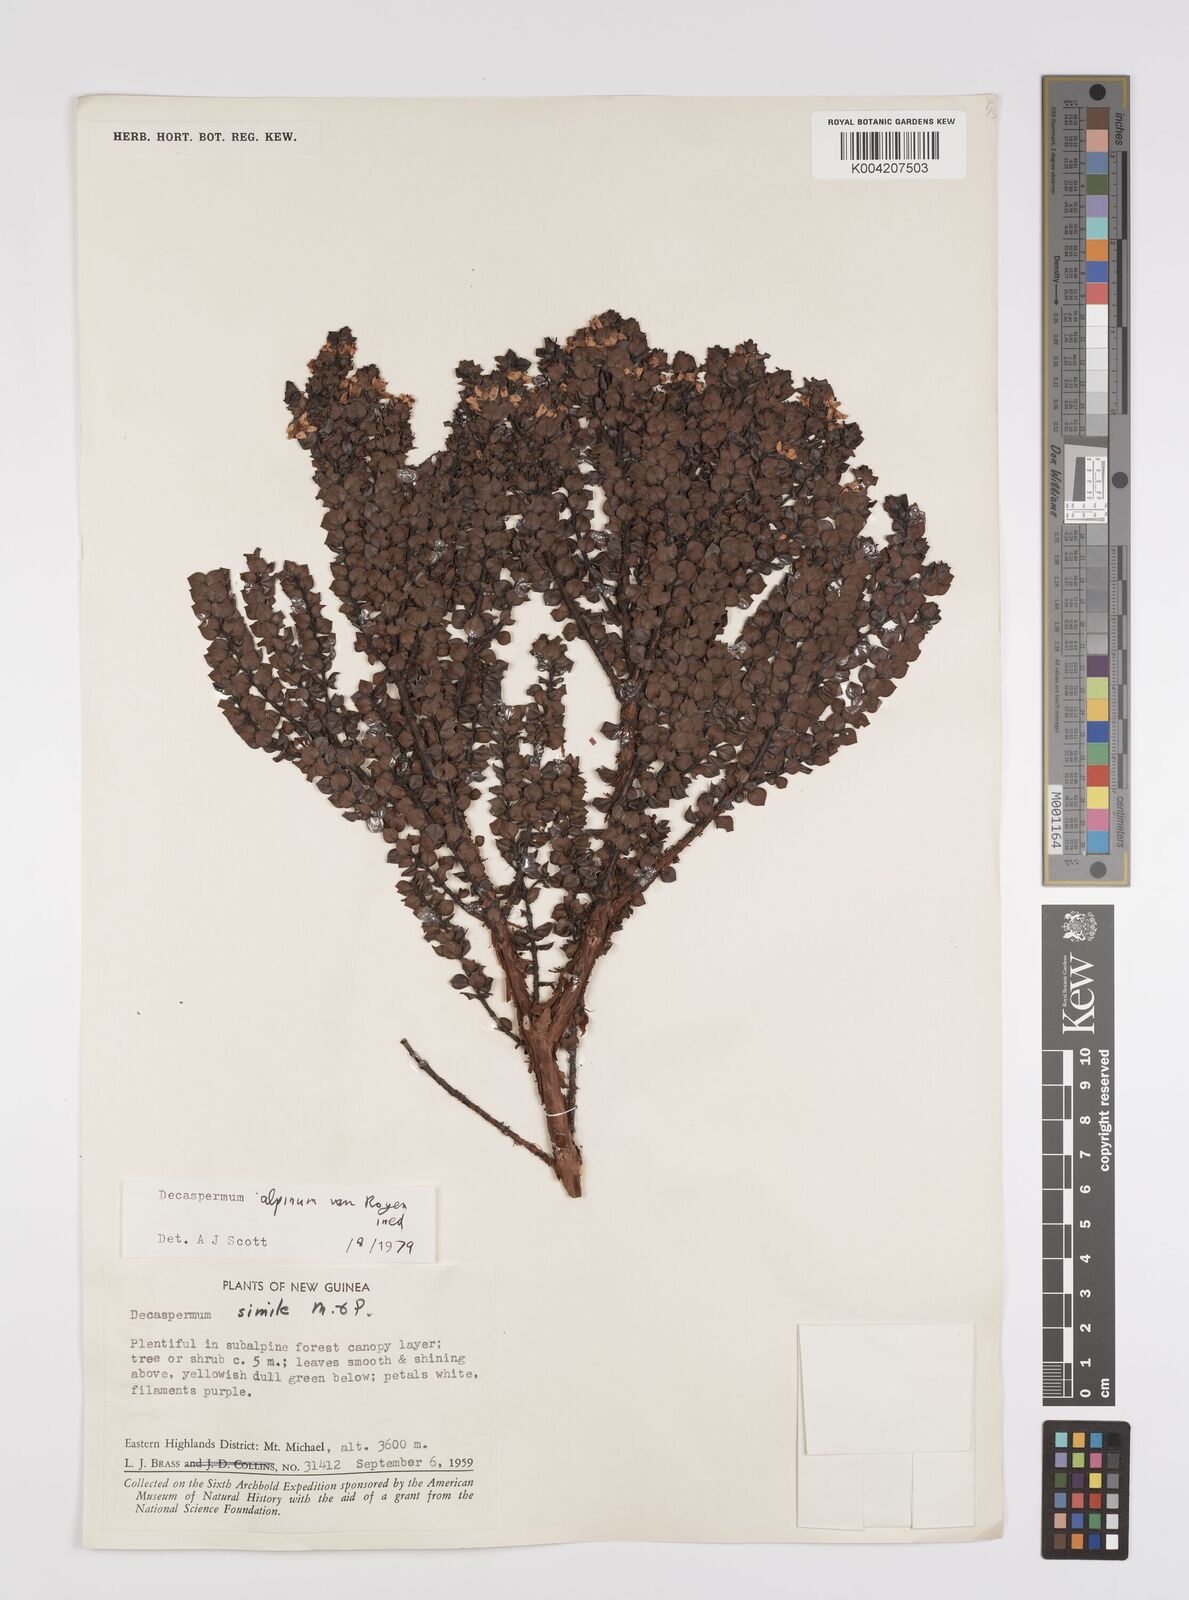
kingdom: Plantae
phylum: Tracheophyta
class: Magnoliopsida
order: Myrtales
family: Myrtaceae
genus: Decaspermum
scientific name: Decaspermum alpinum
